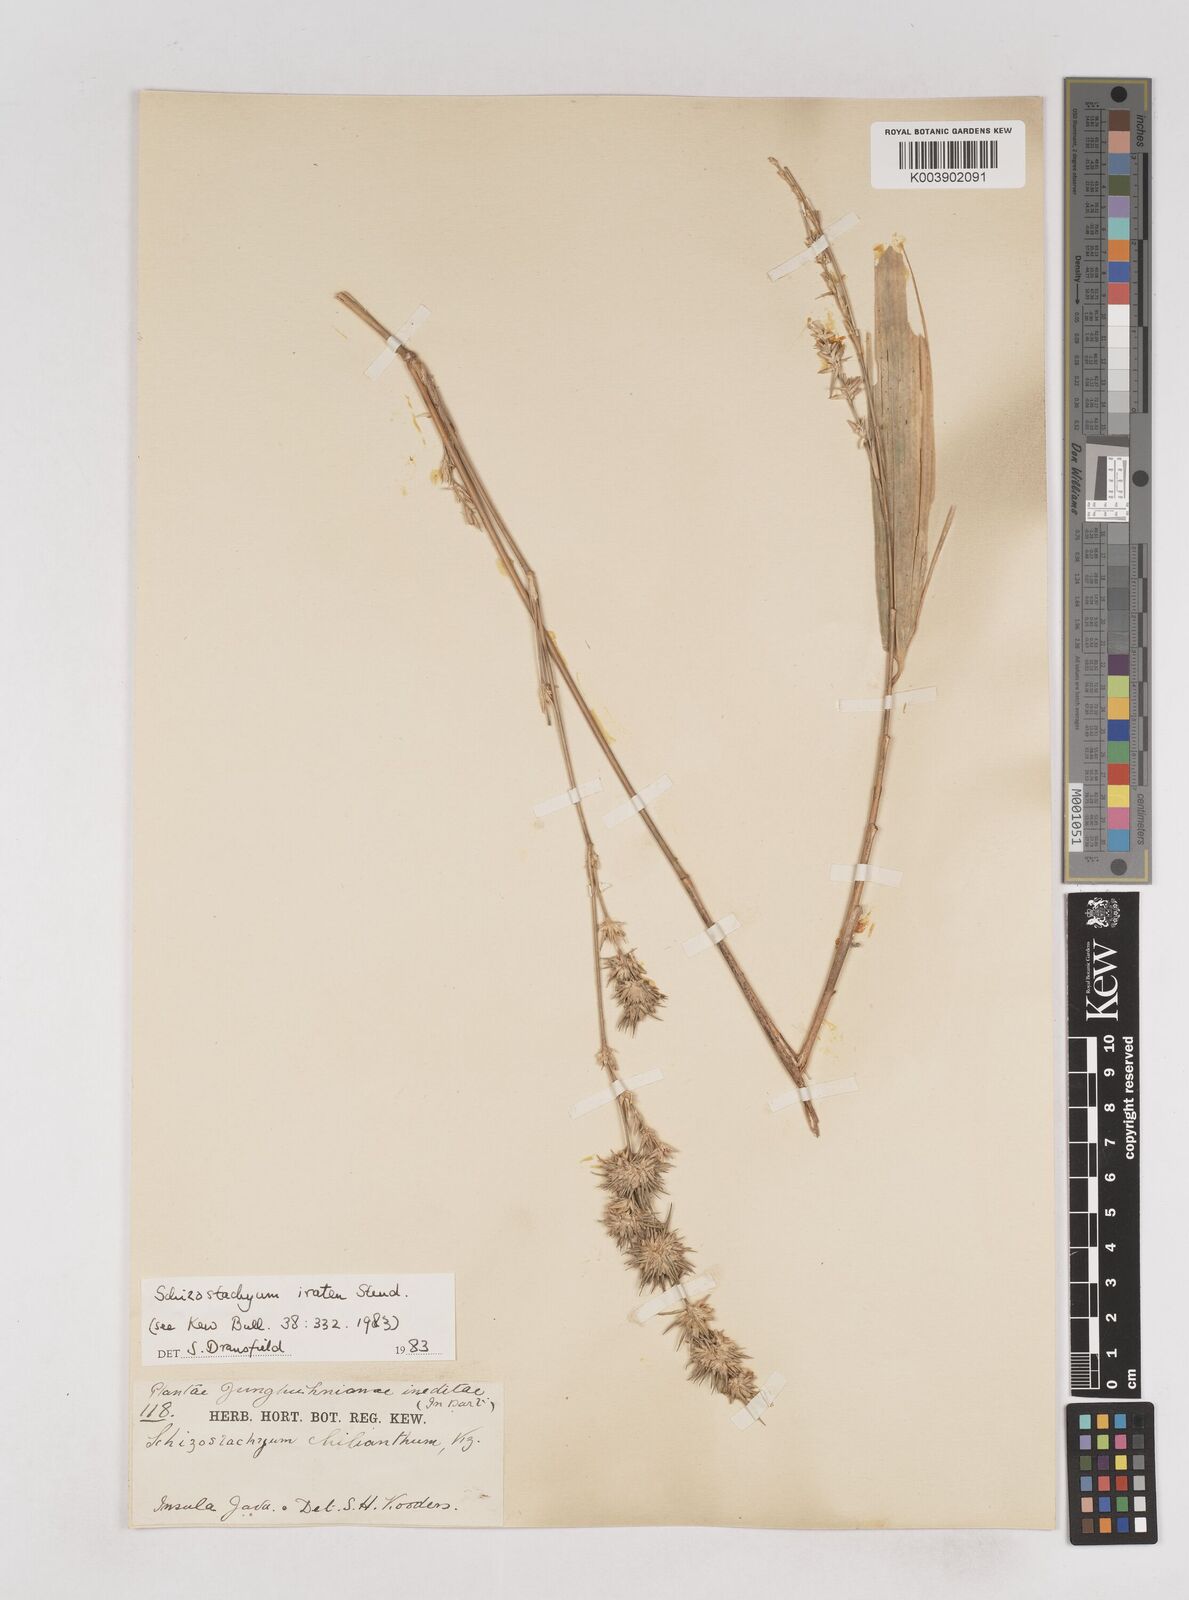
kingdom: Plantae
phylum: Tracheophyta
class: Liliopsida
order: Poales
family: Poaceae
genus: Schizostachyum
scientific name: Schizostachyum iraten
